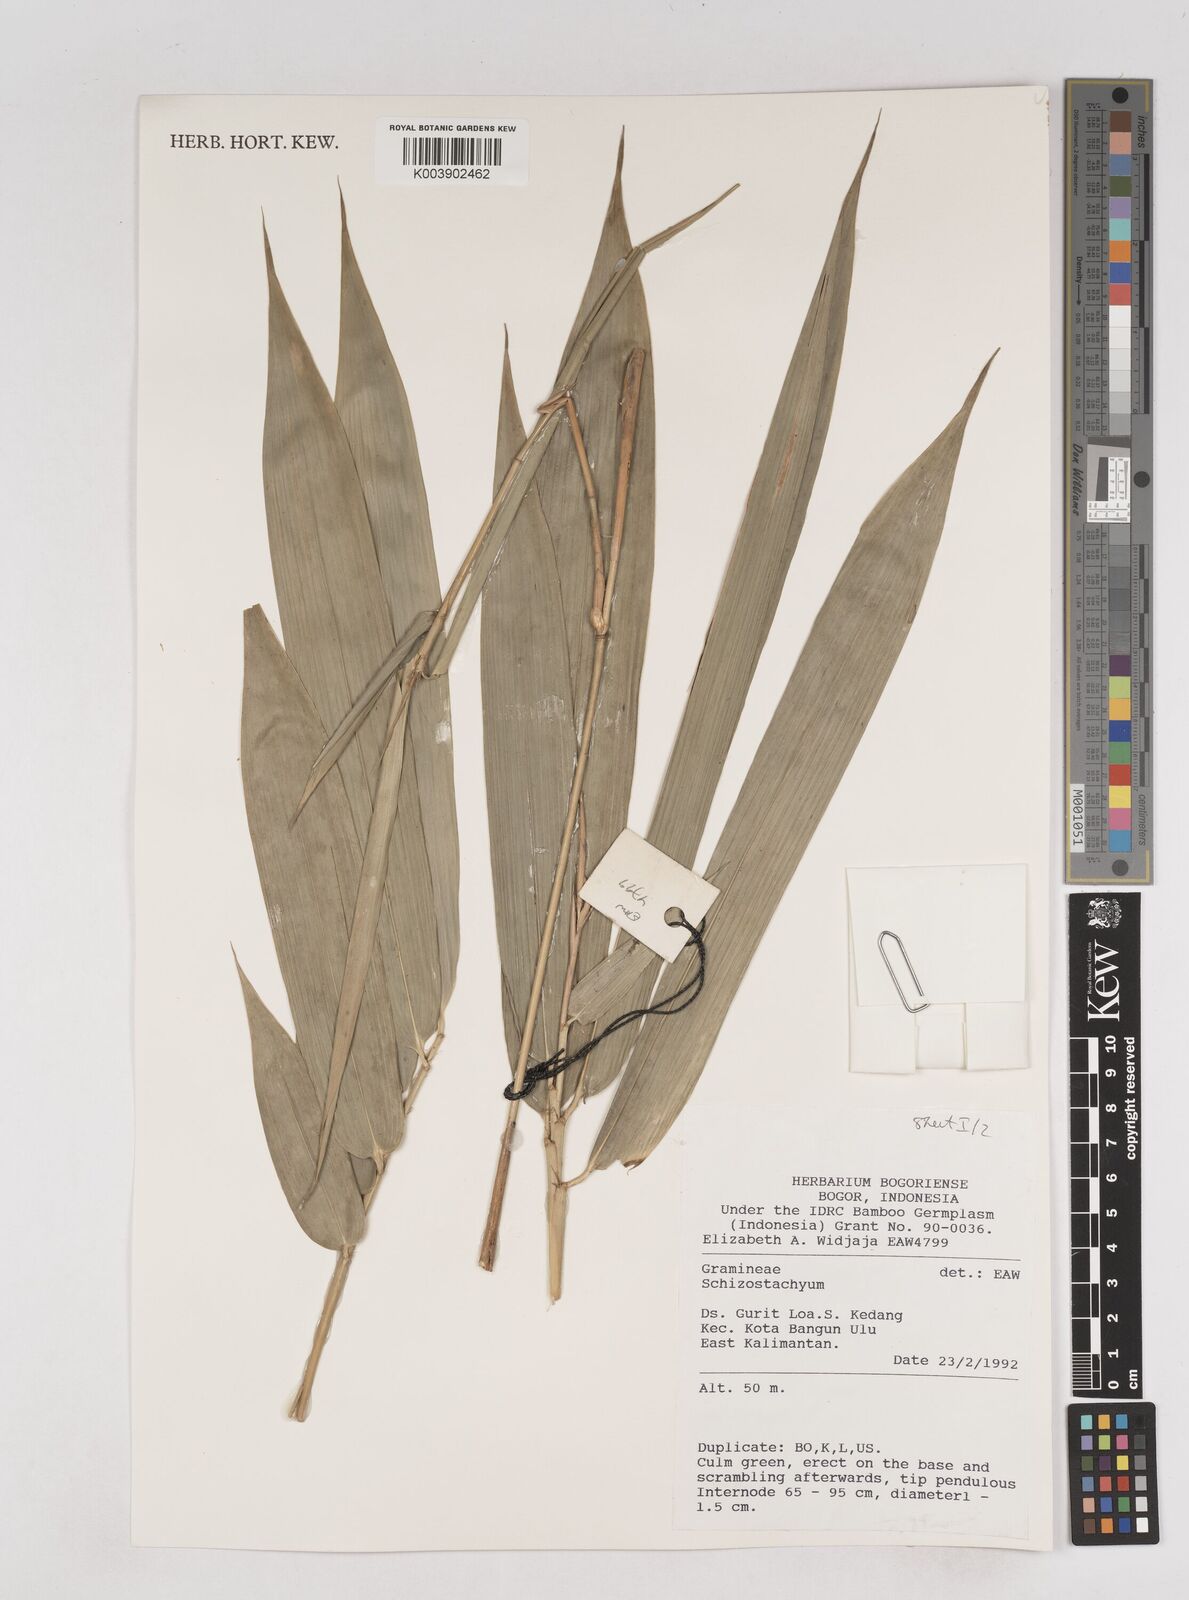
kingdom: Plantae
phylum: Tracheophyta
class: Liliopsida
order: Poales
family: Poaceae
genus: Schizostachyum
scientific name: Schizostachyum
